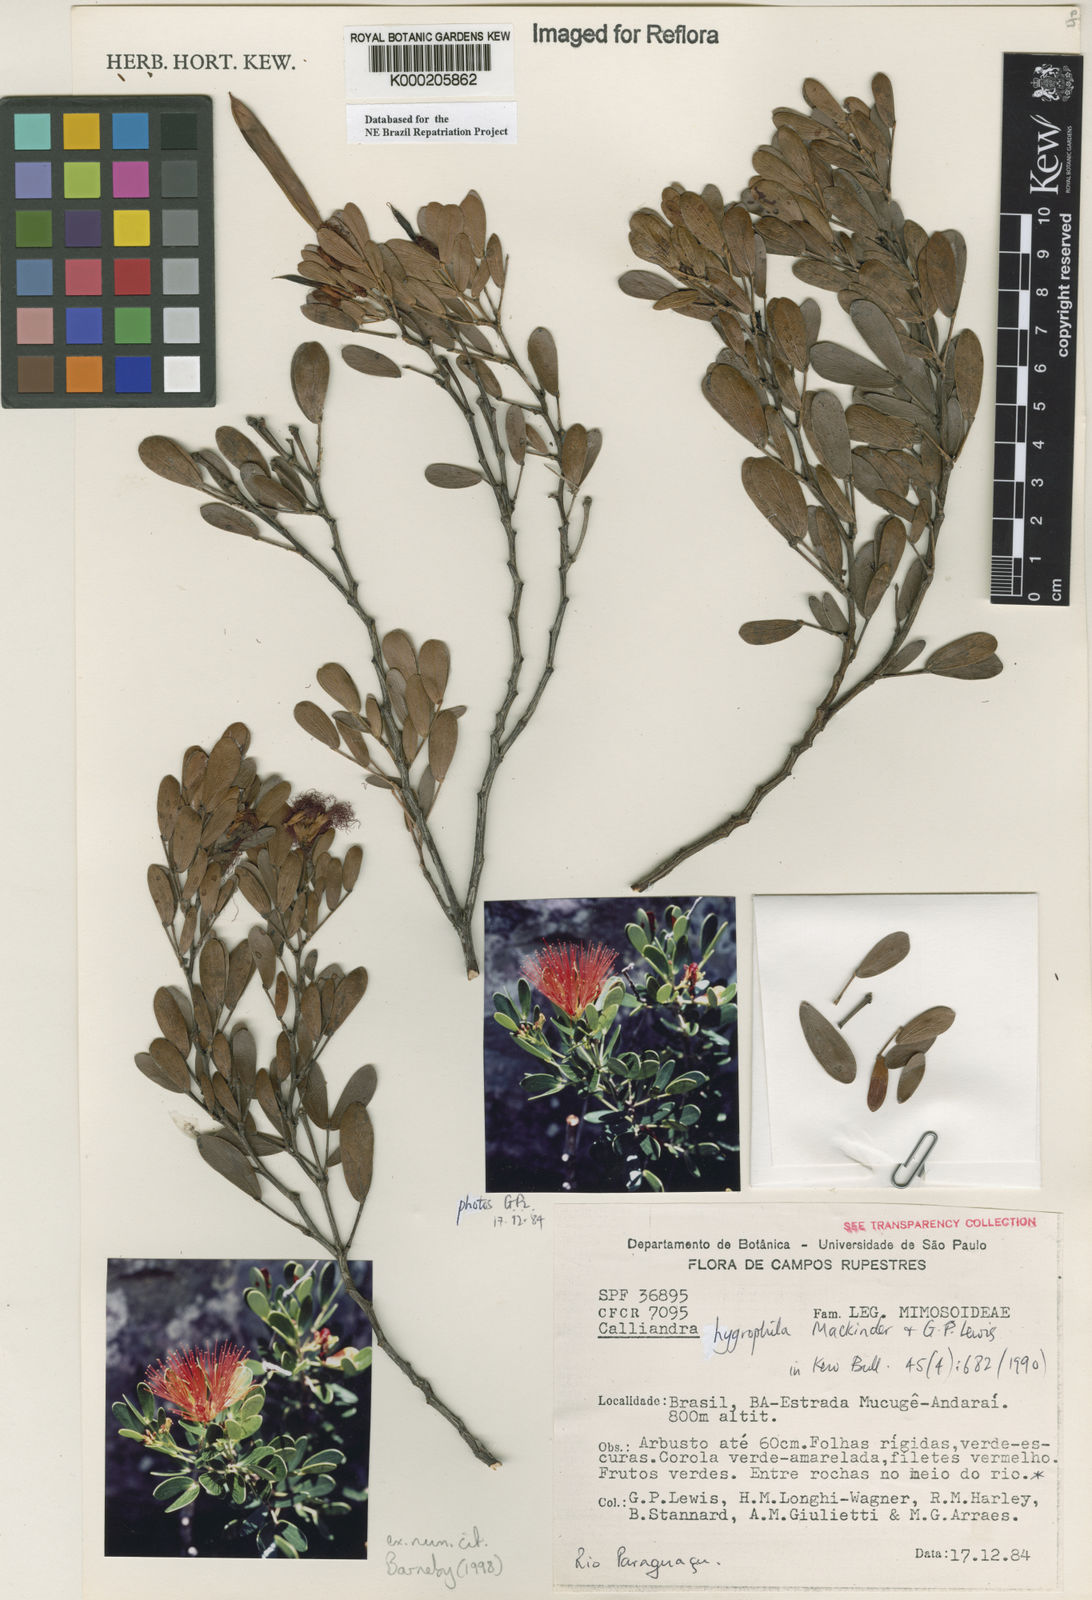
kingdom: Plantae
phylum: Tracheophyta
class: Magnoliopsida
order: Fabales
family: Fabaceae
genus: Calliandra
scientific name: Calliandra hygrophila
